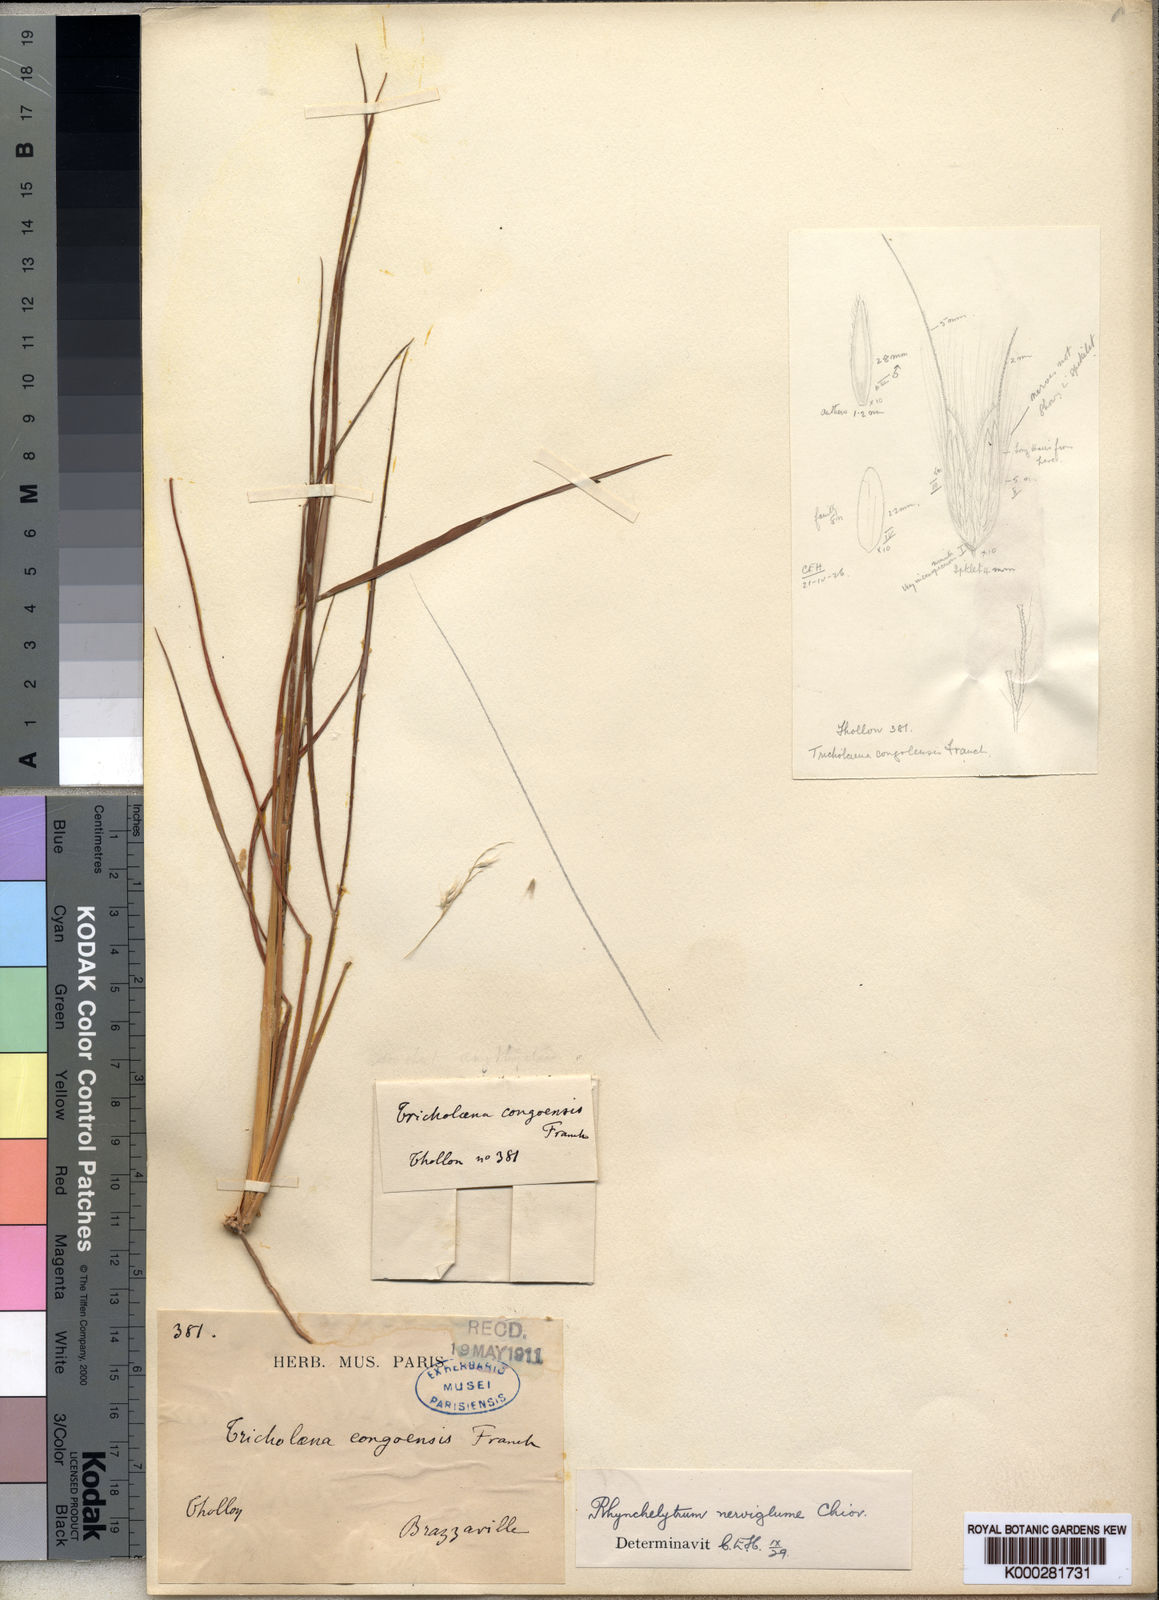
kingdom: Plantae
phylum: Tracheophyta
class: Liliopsida
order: Poales
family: Poaceae
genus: Melinis
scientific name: Melinis nerviglumis
